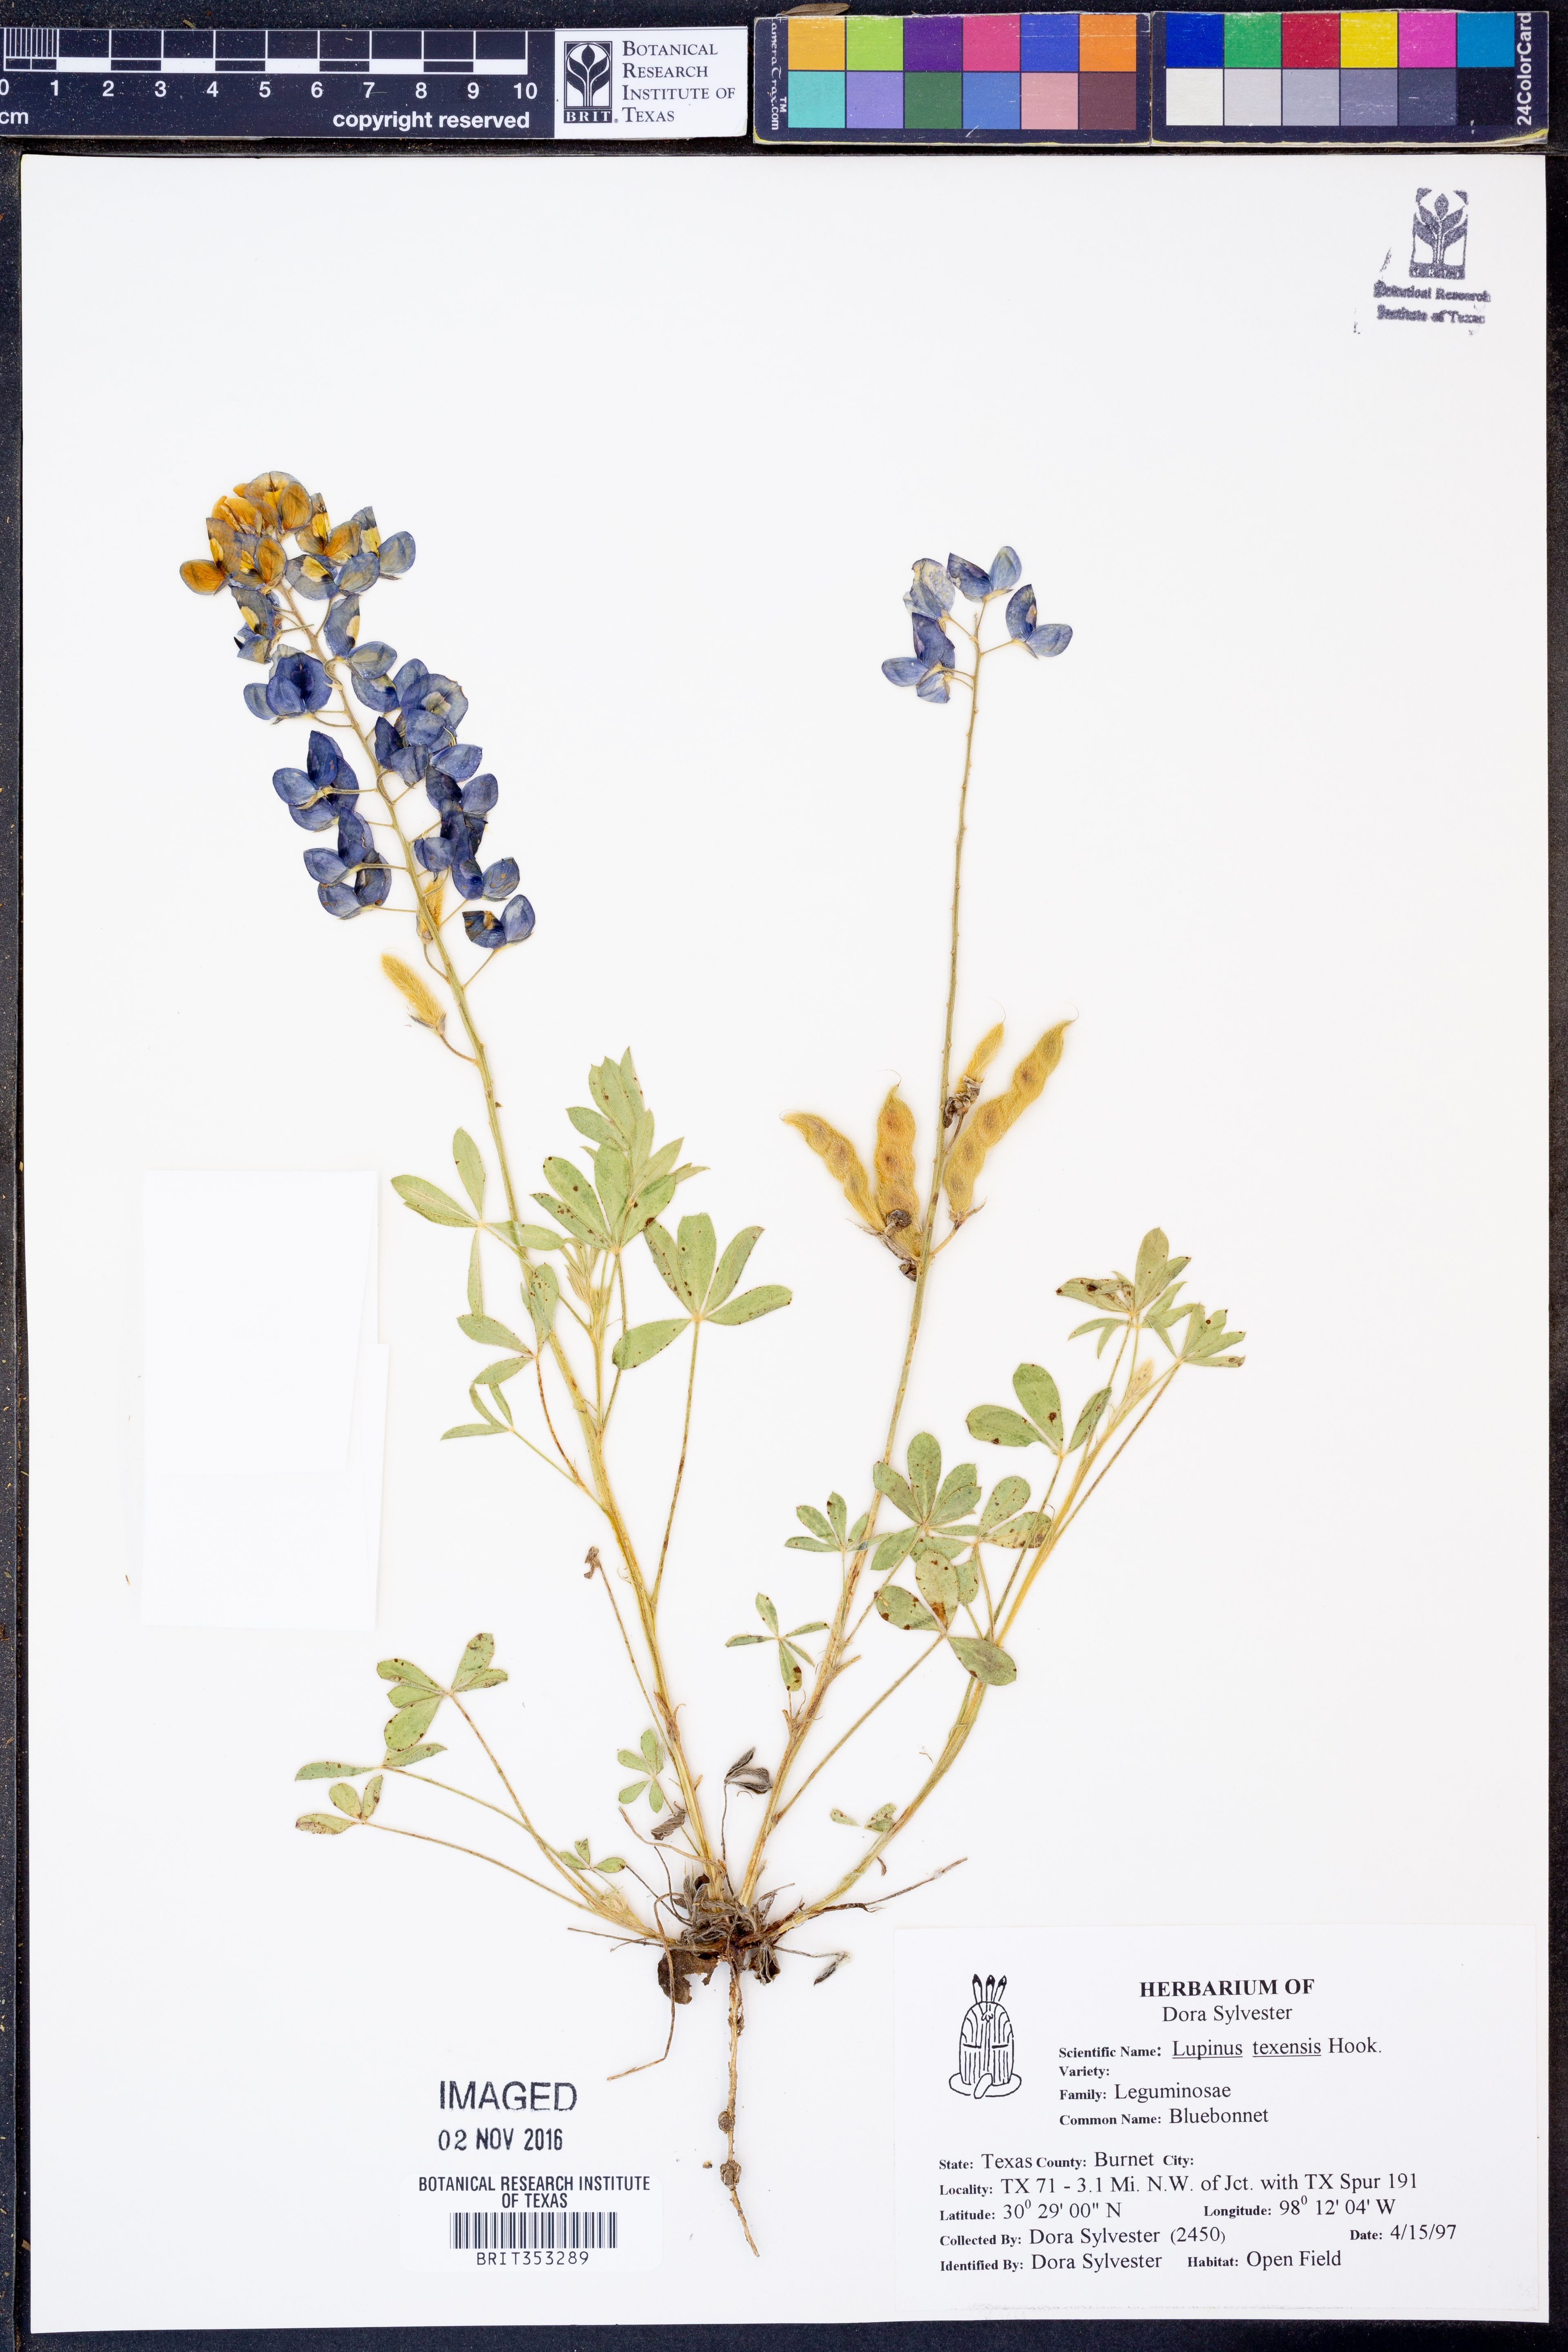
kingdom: Plantae
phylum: Tracheophyta
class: Magnoliopsida
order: Fabales
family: Fabaceae
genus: Lupinus
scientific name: Lupinus texensis
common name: Texas bluebonnet
